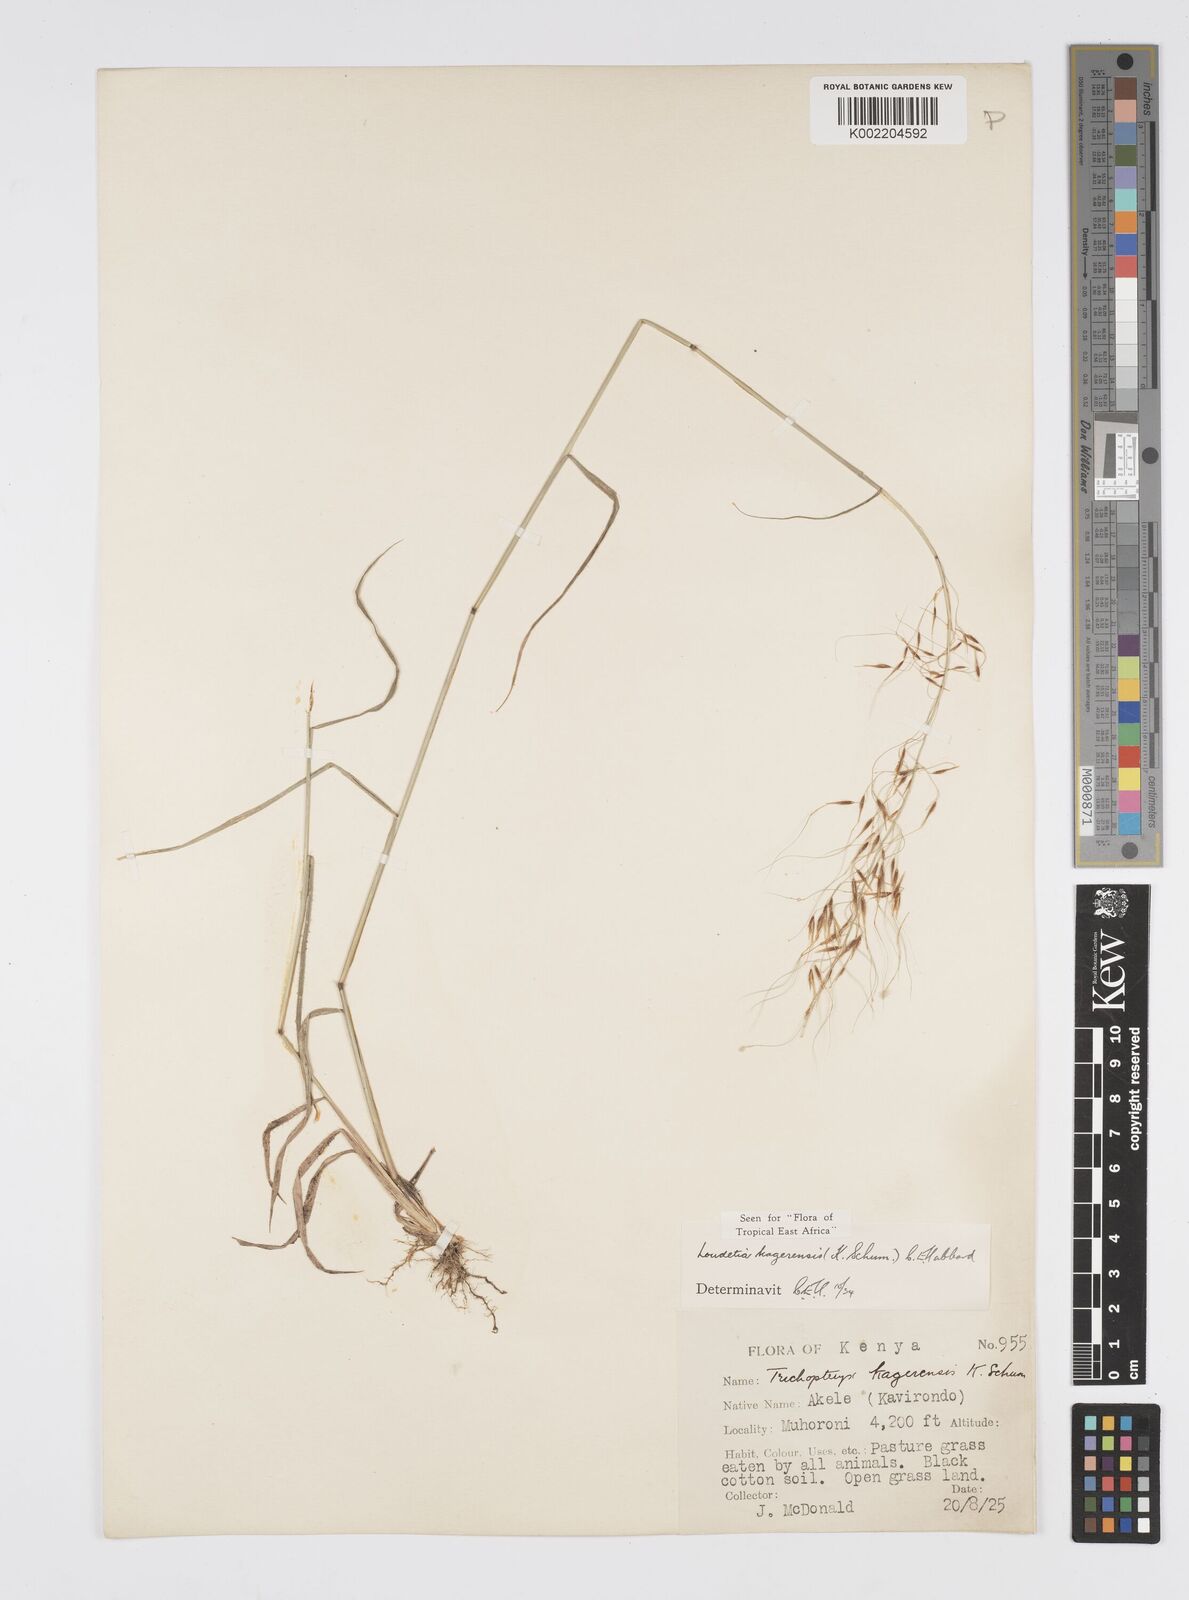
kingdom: Plantae
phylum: Tracheophyta
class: Liliopsida
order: Poales
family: Poaceae
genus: Loudetia
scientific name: Loudetia kagerensis
